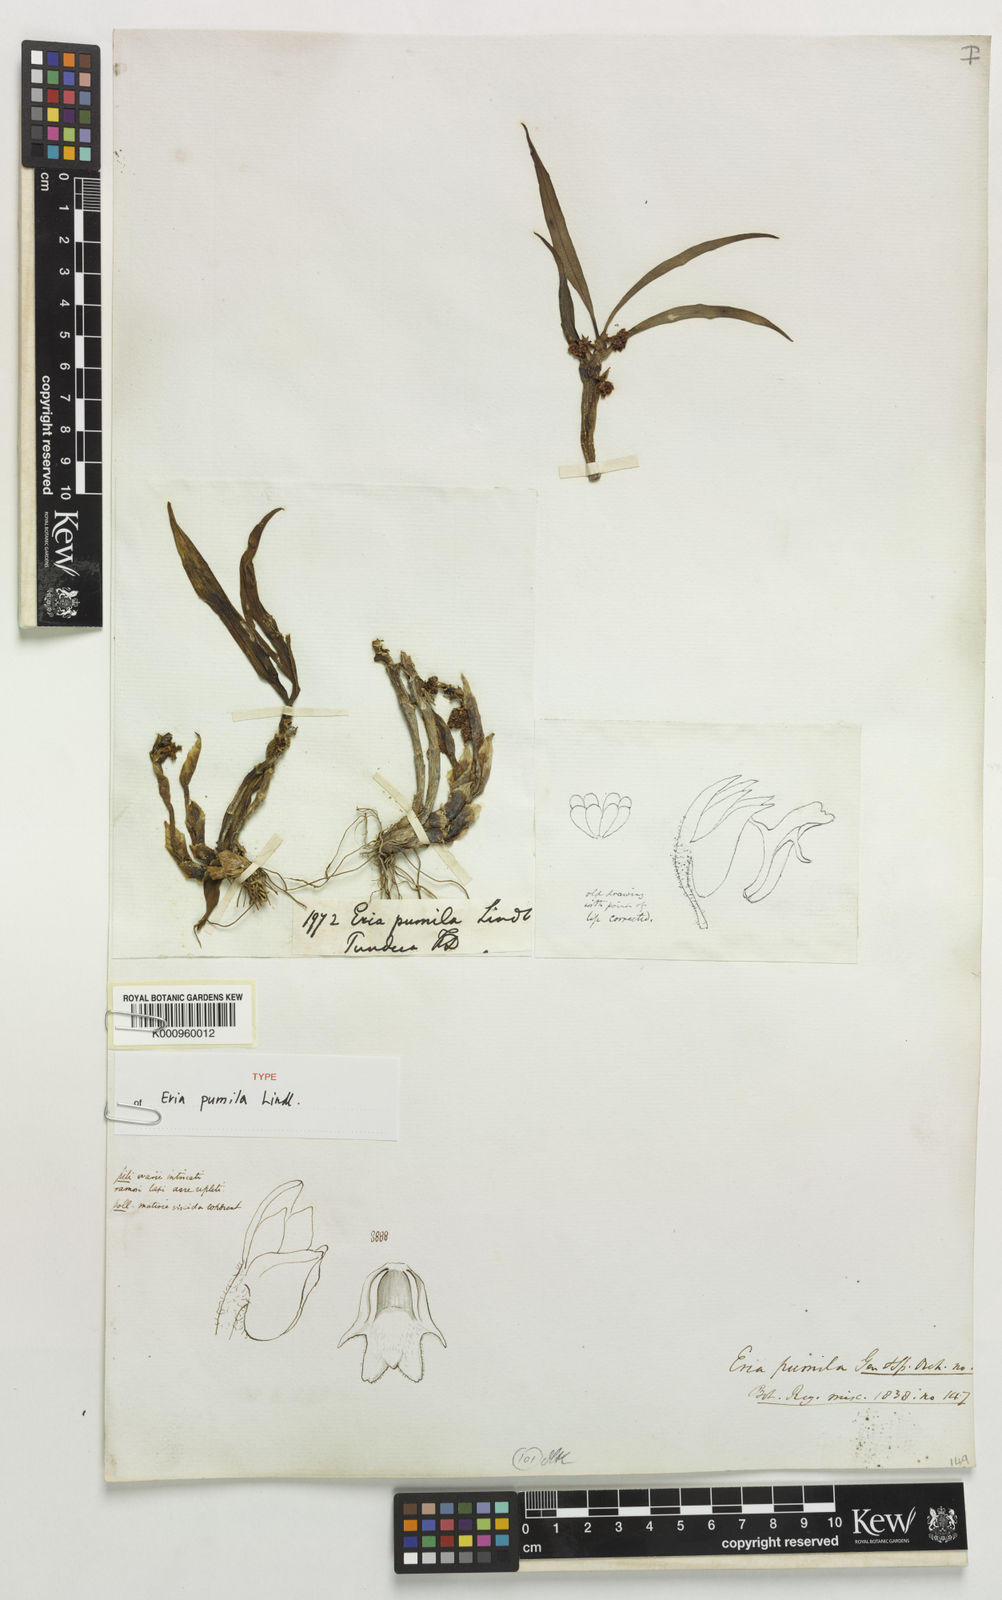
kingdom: Plantae
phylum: Tracheophyta
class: Liliopsida
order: Asparagales
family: Orchidaceae
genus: Eria
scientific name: Eria
